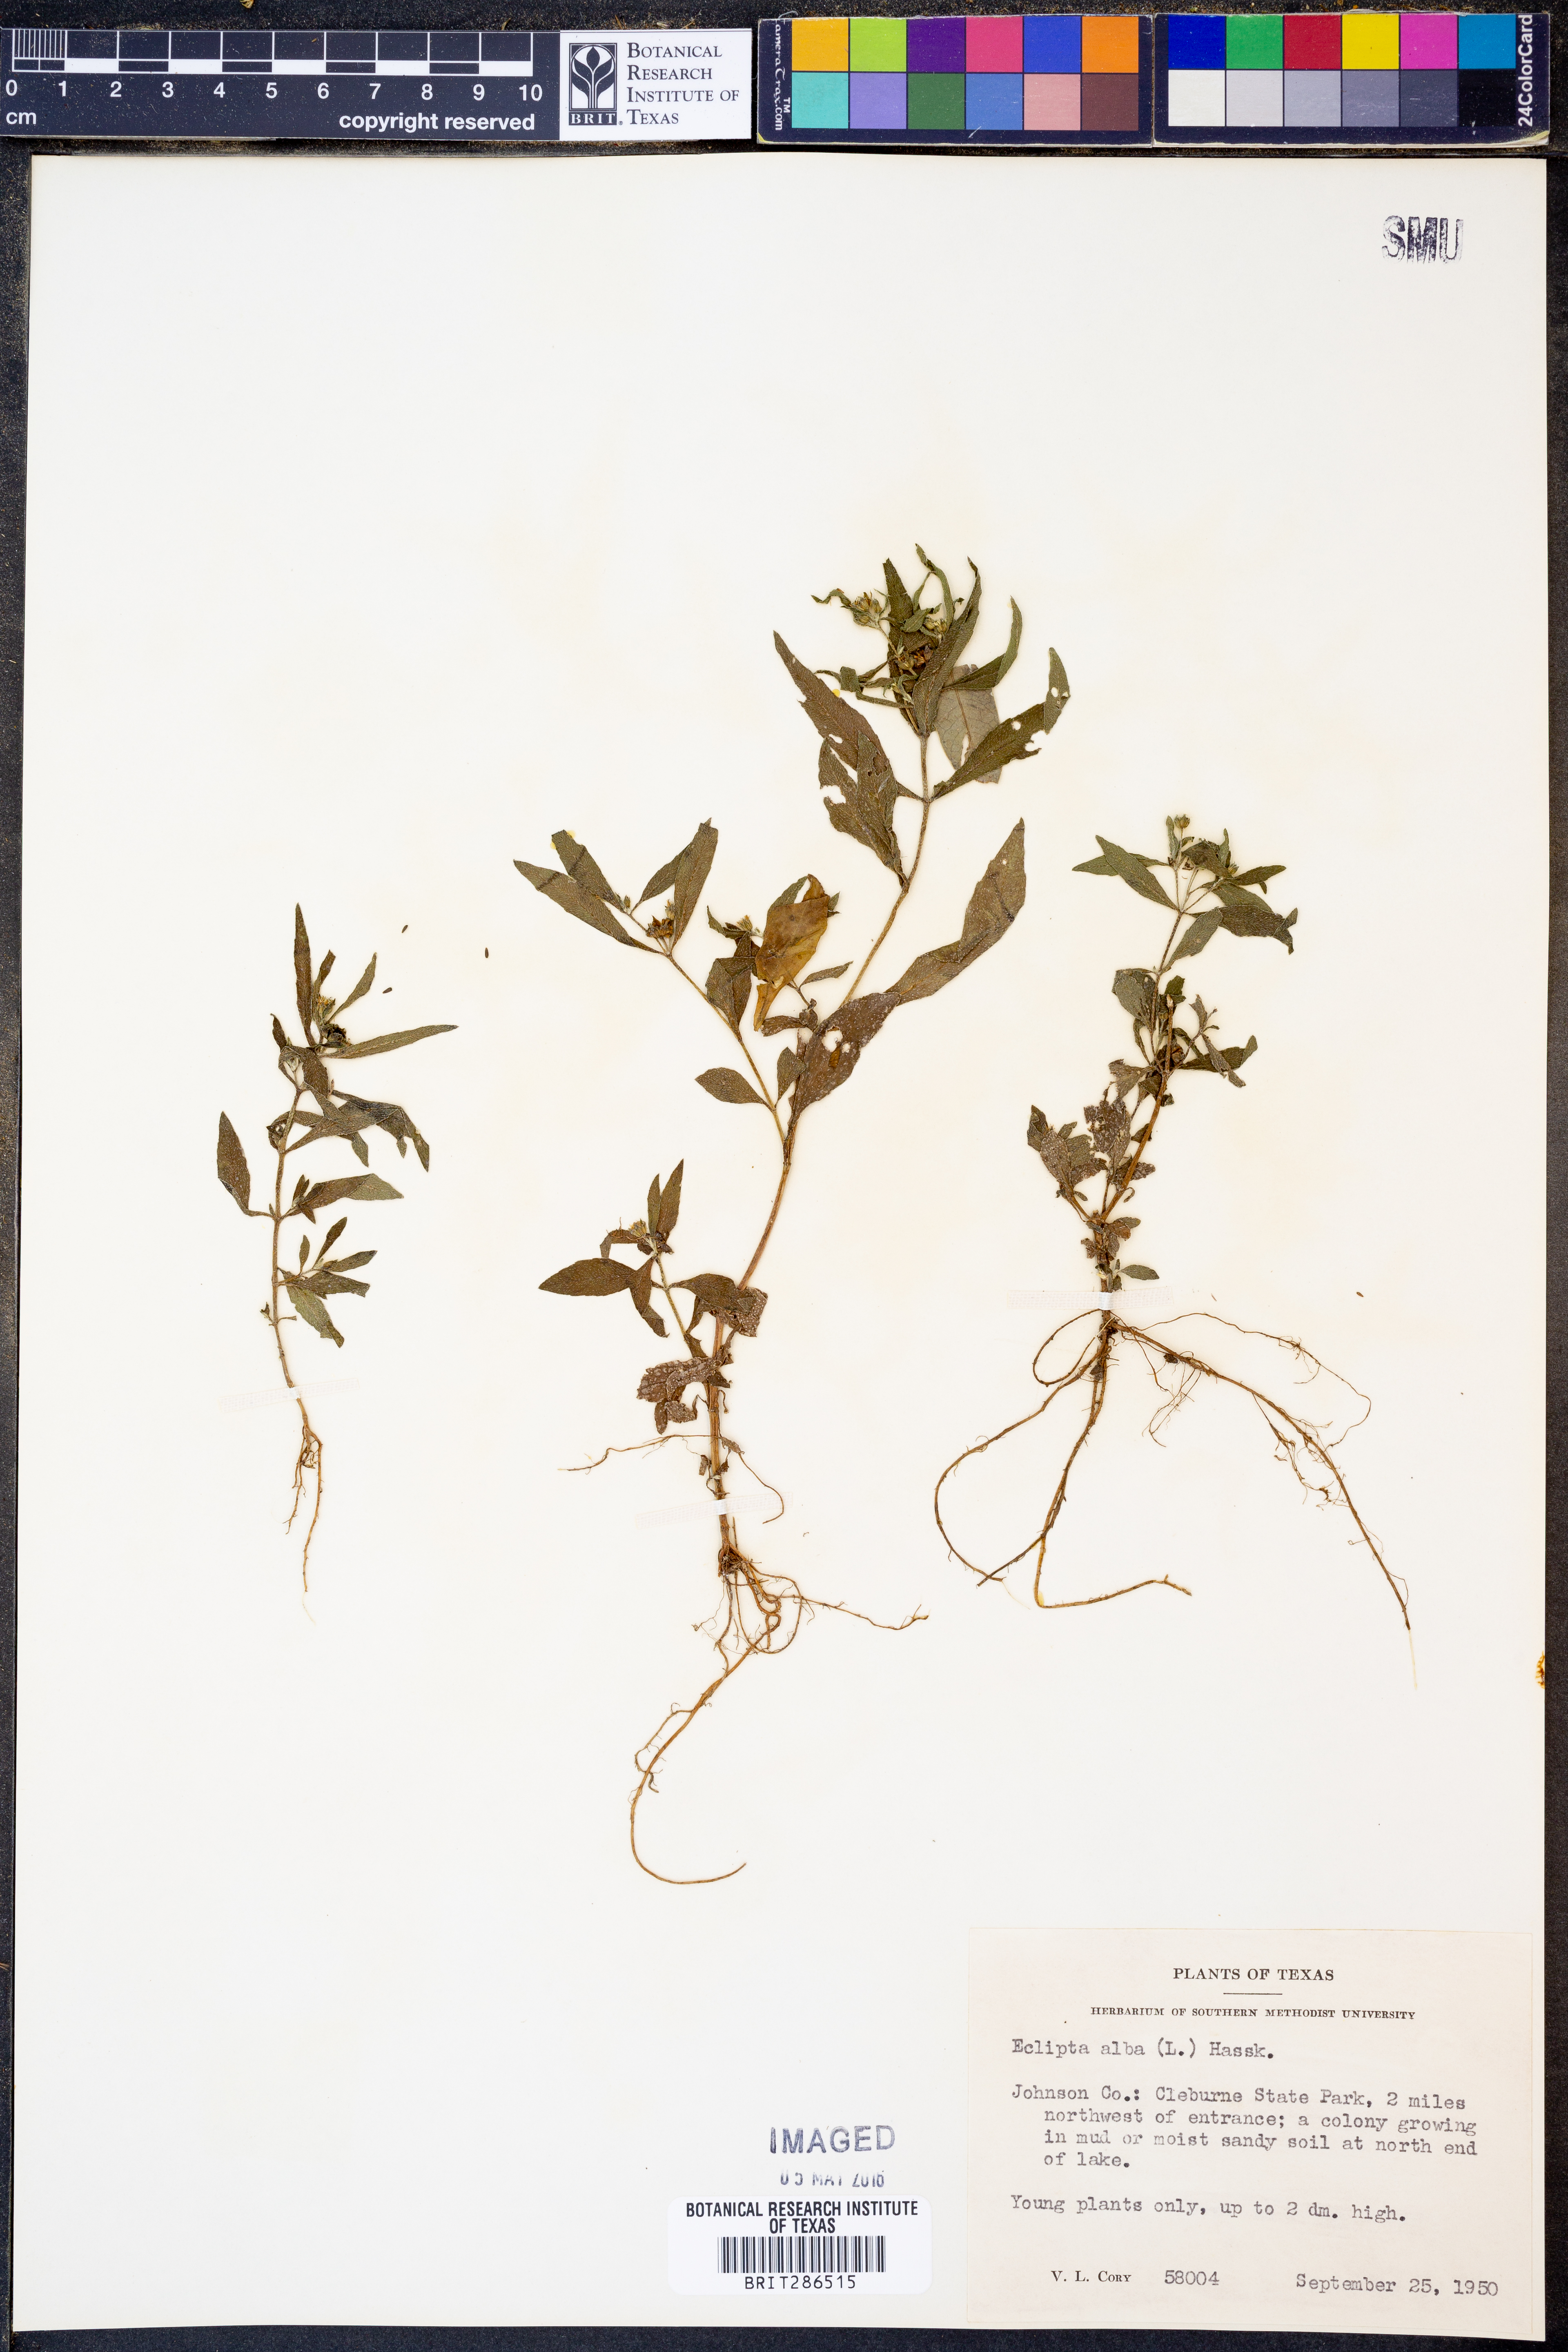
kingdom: Plantae
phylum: Tracheophyta
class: Magnoliopsida
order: Asterales
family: Asteraceae
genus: Eclipta
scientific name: Eclipta alba
